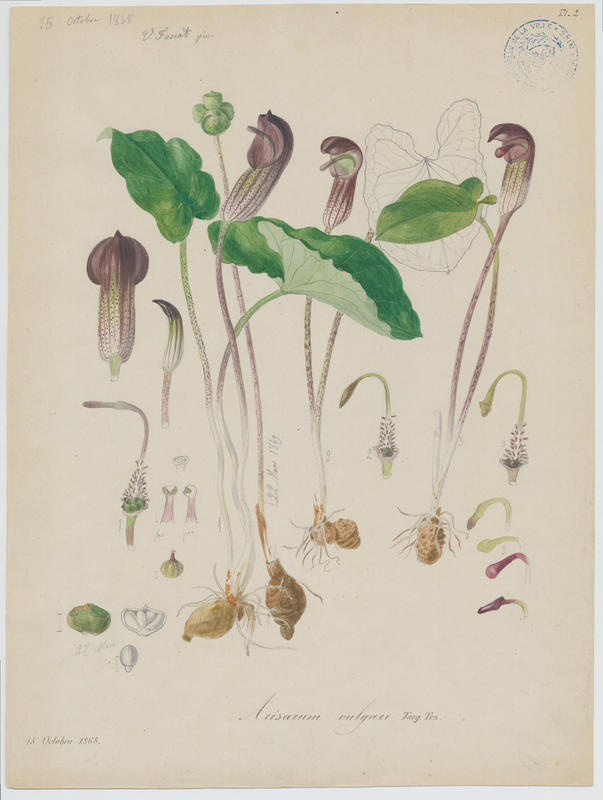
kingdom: Plantae
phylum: Tracheophyta
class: Liliopsida
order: Alismatales
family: Araceae
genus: Arisarum
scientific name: Arisarum vulgare
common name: Common arisarum
